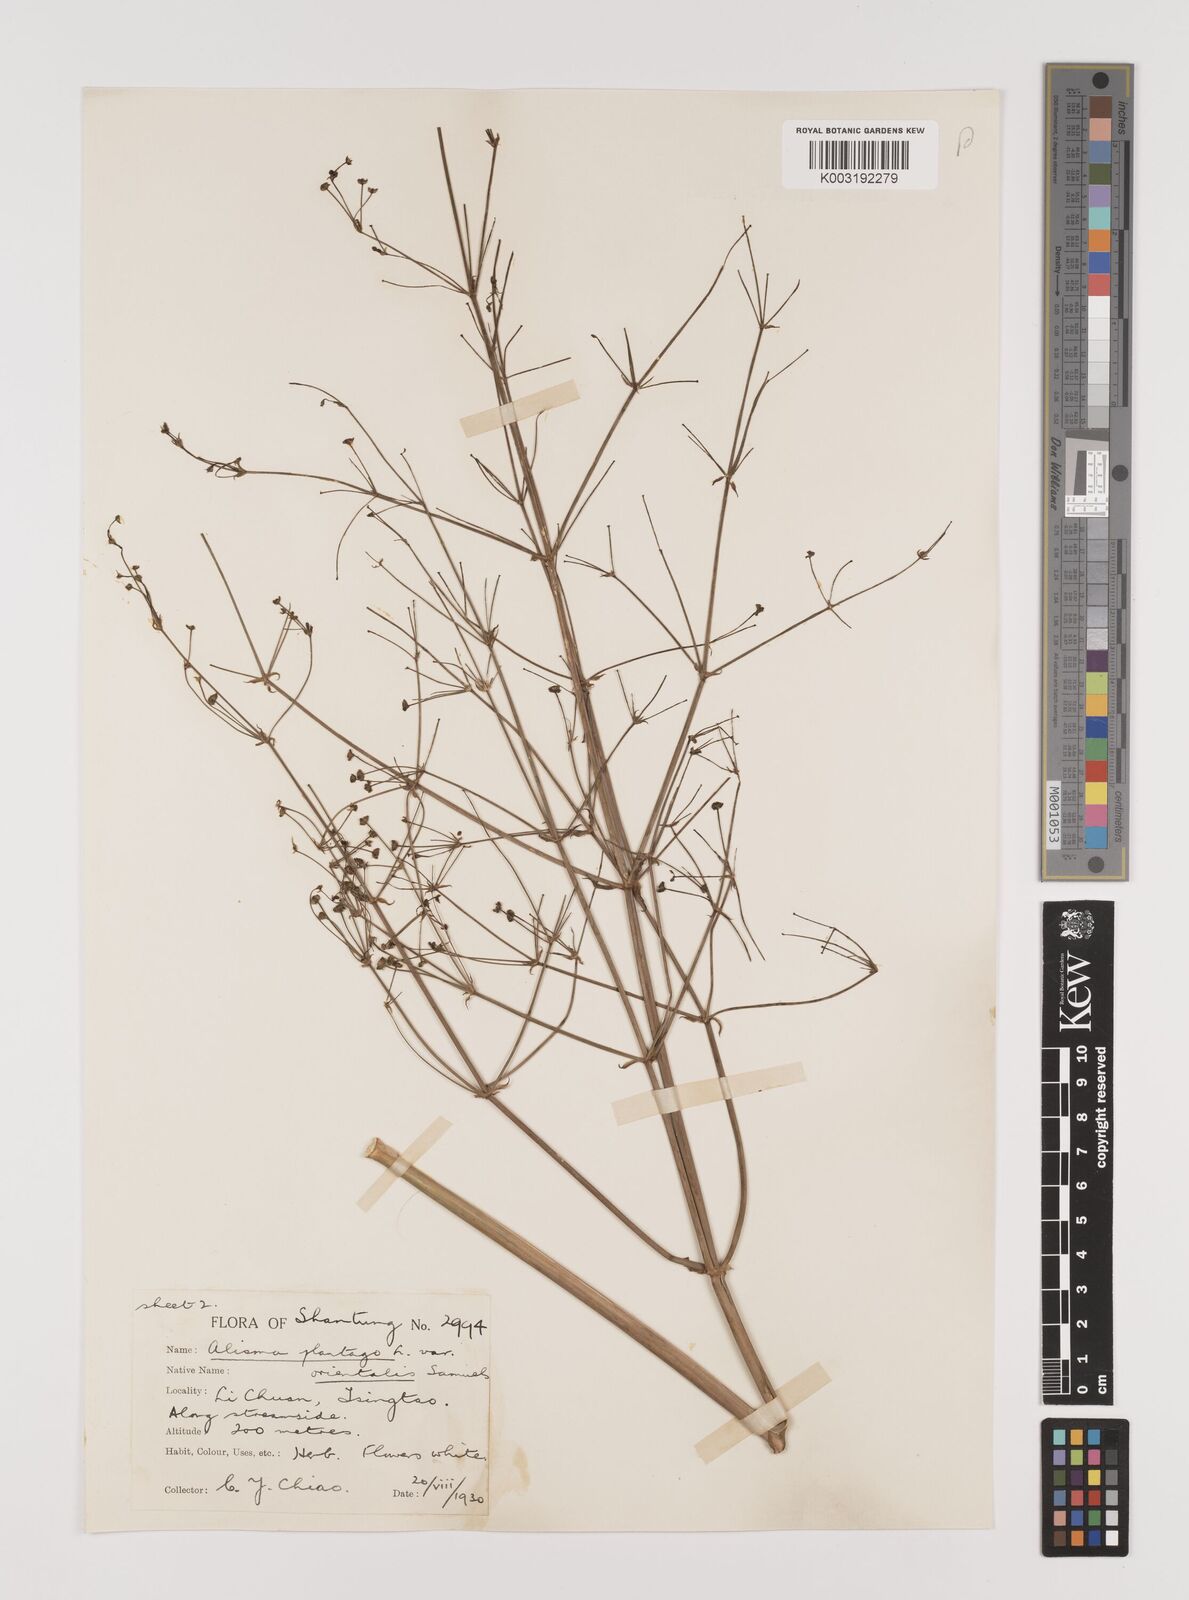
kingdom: Plantae
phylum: Tracheophyta
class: Liliopsida
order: Alismatales
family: Alismataceae
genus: Alisma
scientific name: Alisma plantago-aquatica
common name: Water-plantain
